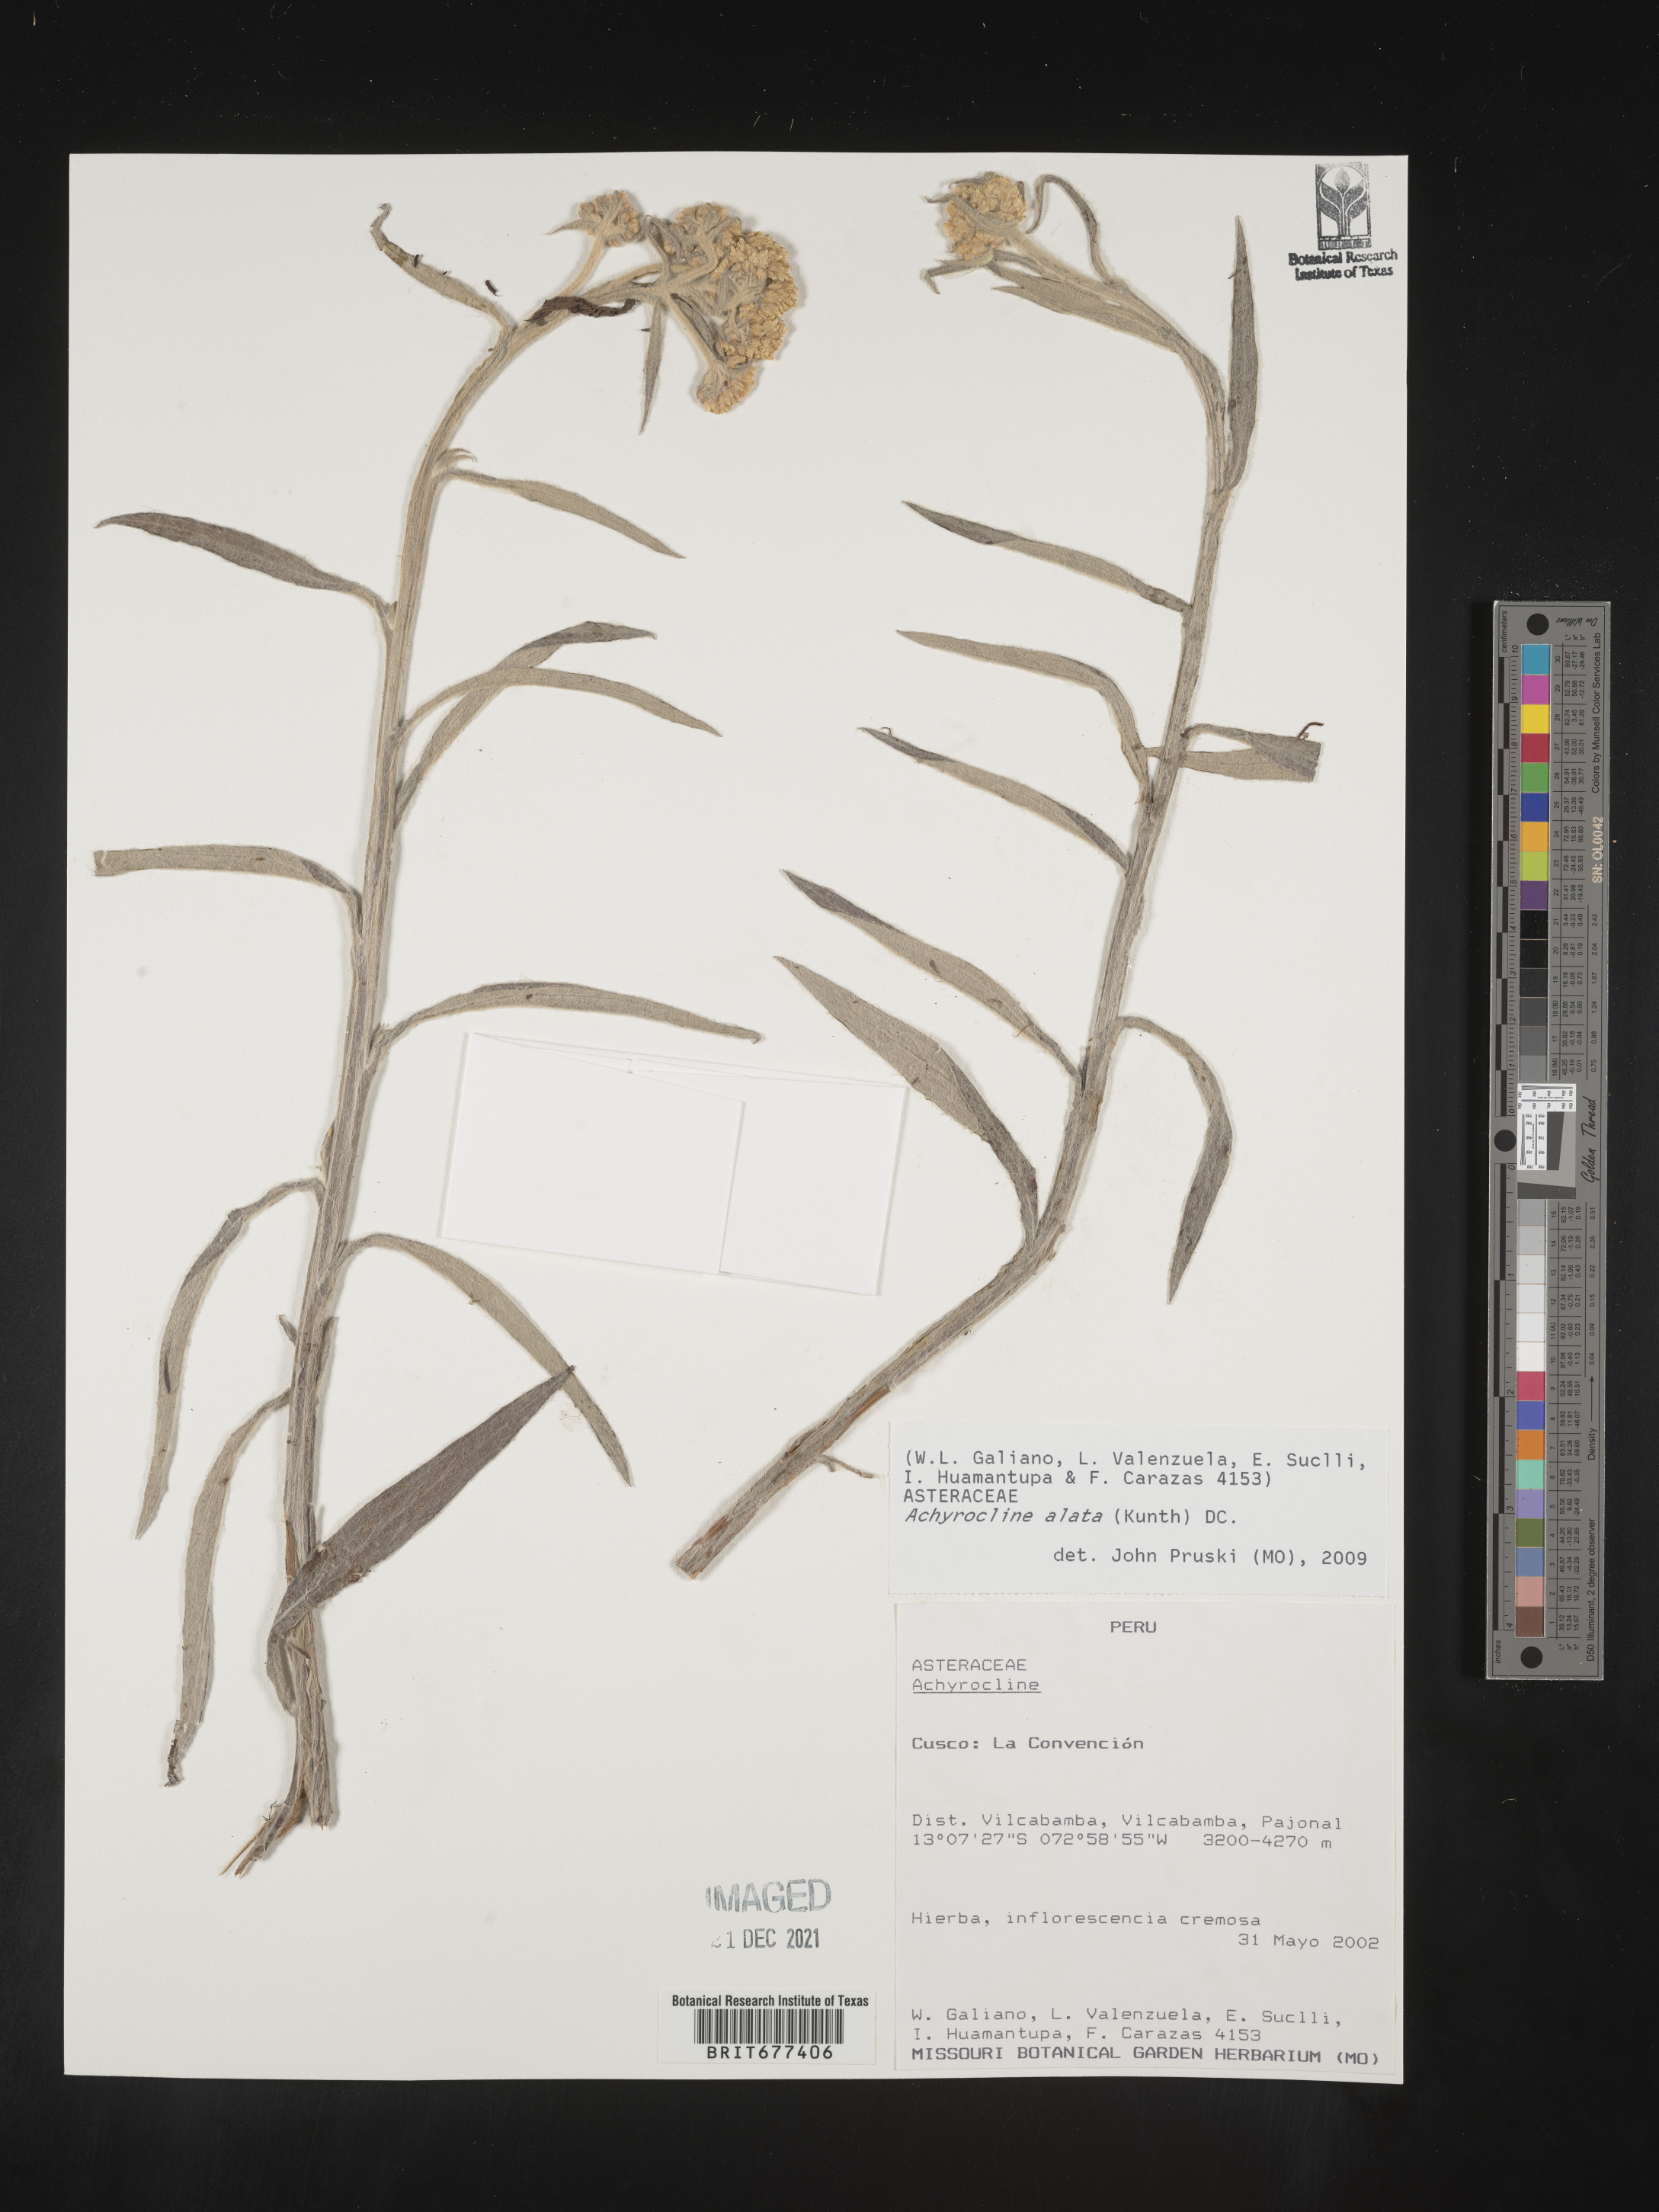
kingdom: Plantae
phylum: Tracheophyta
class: Magnoliopsida
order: Asterales
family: Asteraceae
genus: Achyrocline
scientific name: Achyrocline
